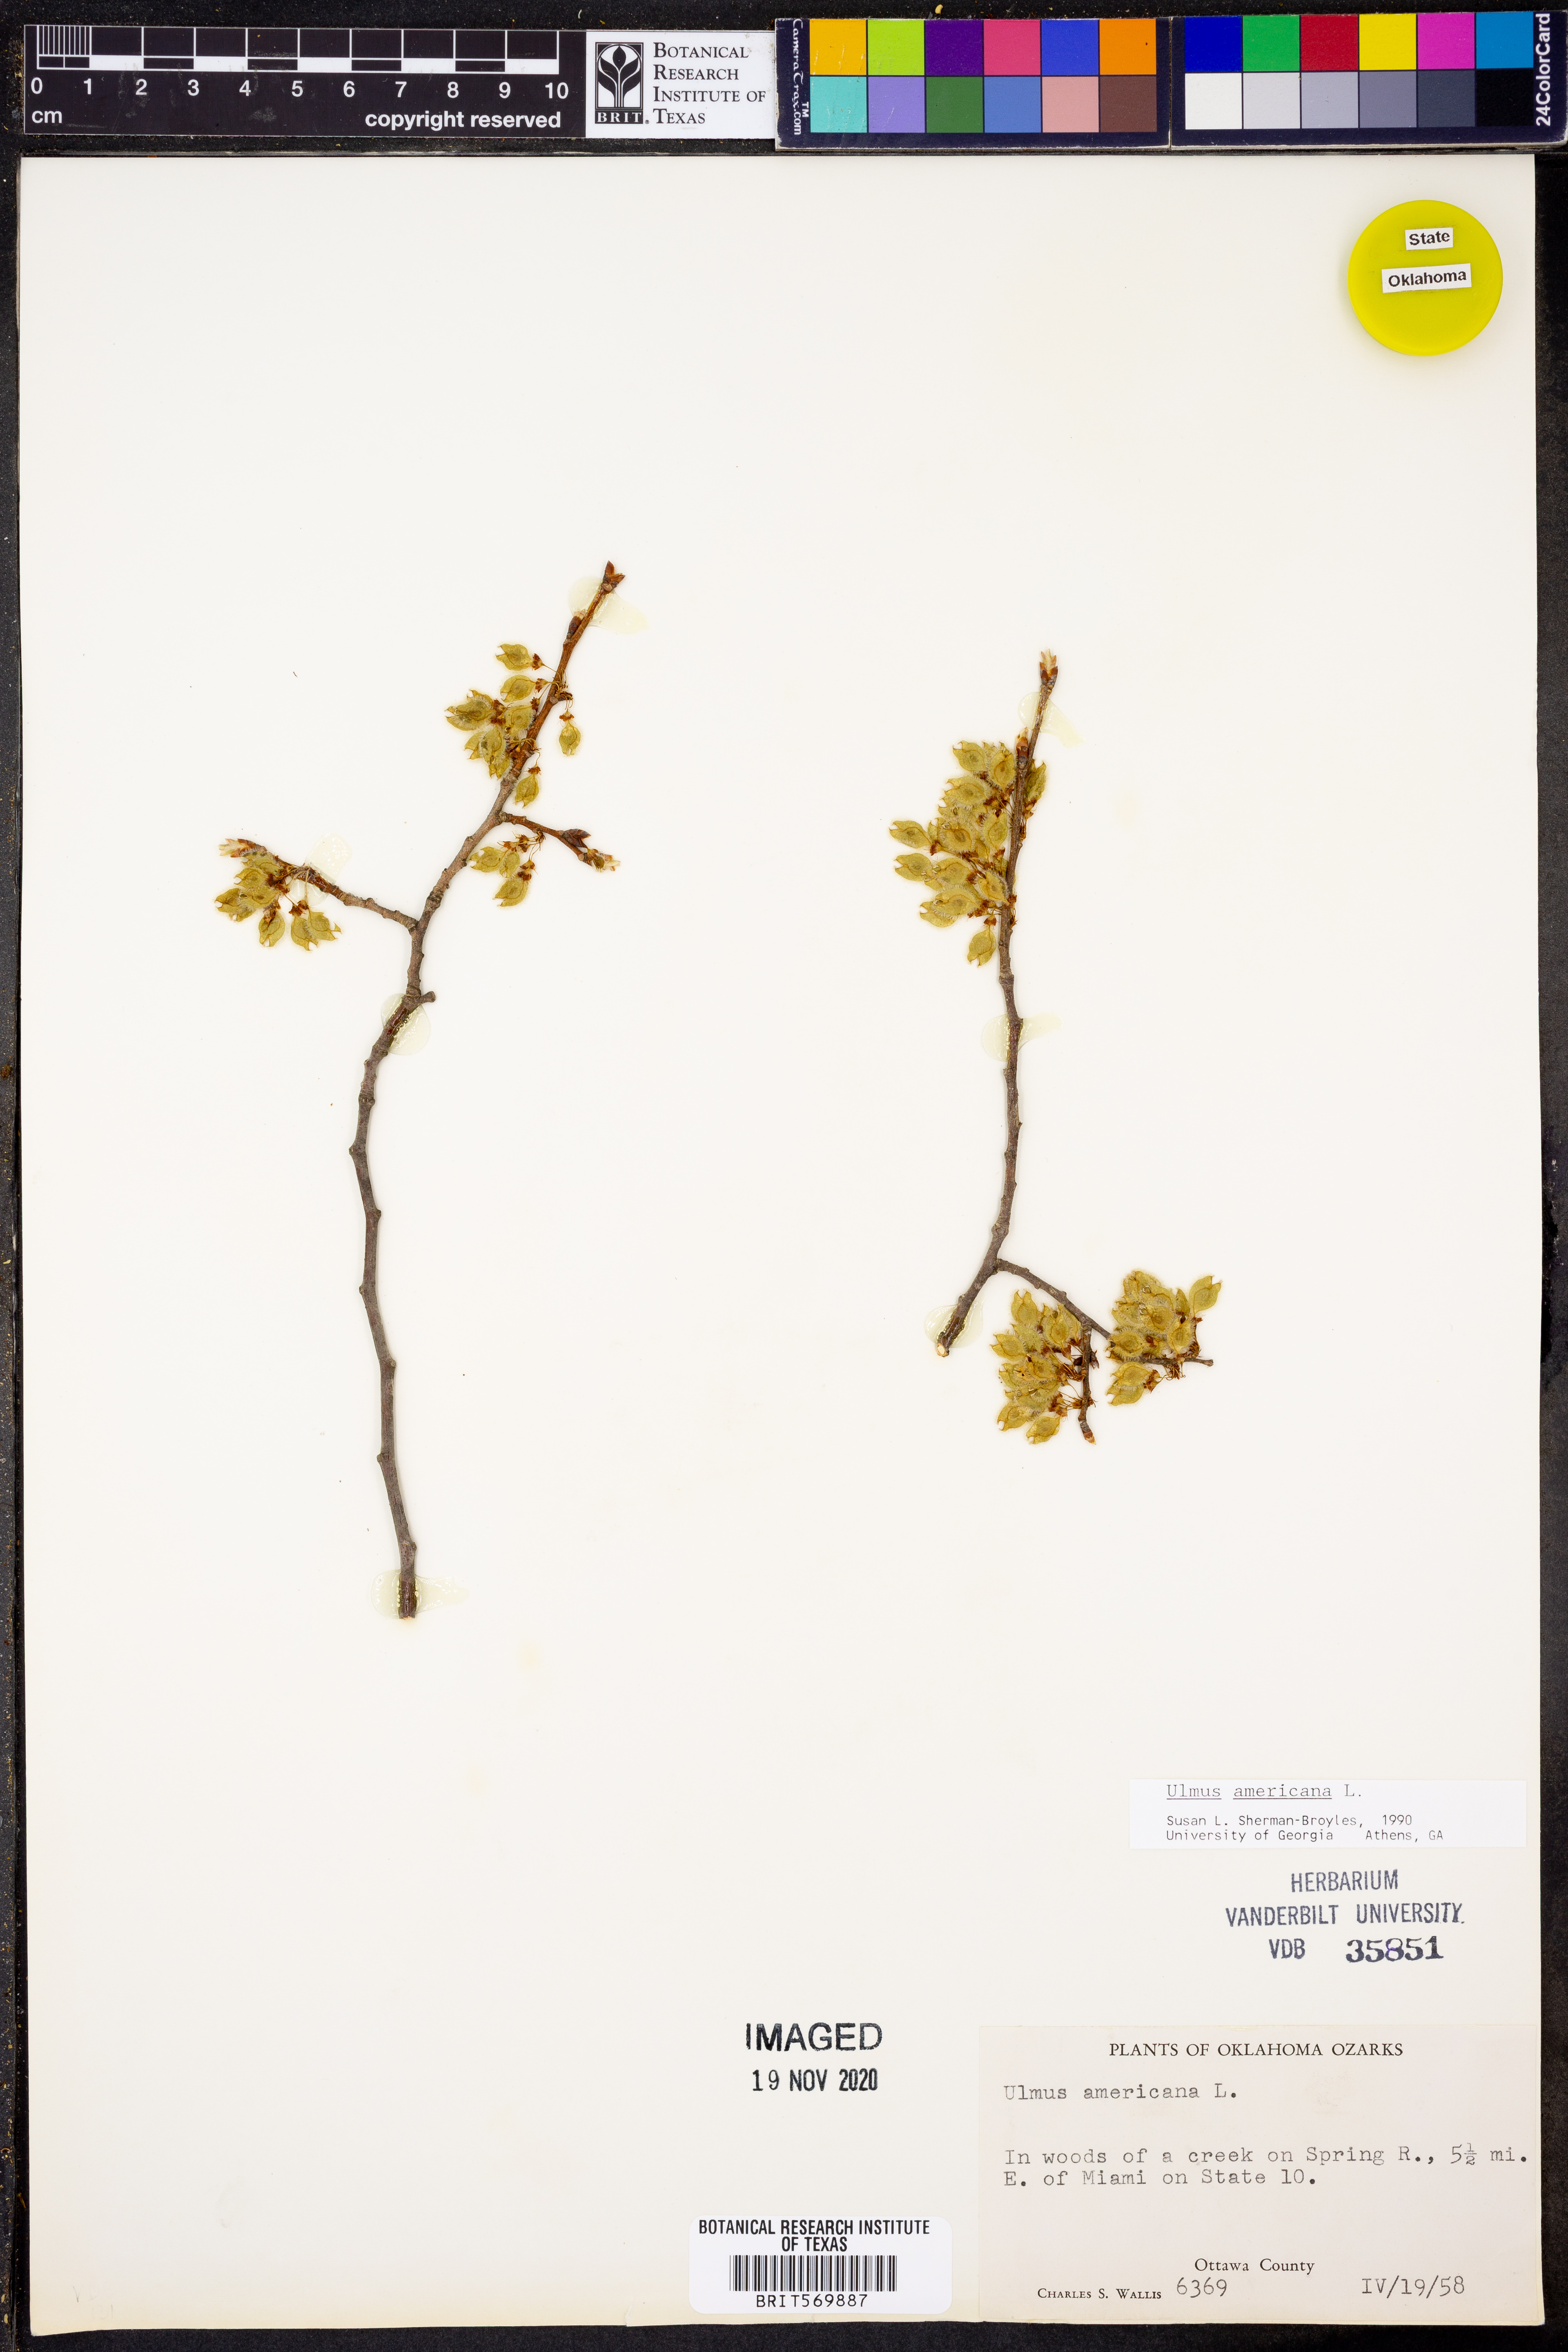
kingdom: Plantae
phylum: Tracheophyta
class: Magnoliopsida
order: Rosales
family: Ulmaceae
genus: Ulmus
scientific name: Ulmus americana
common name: American elm
